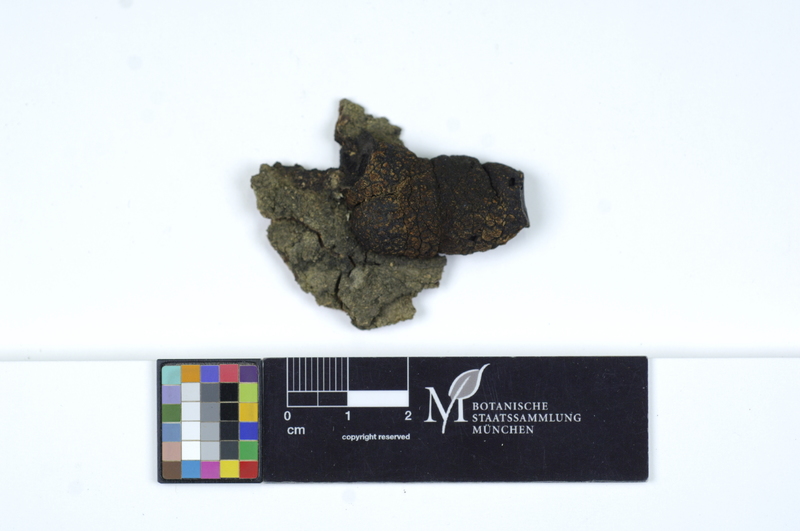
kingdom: Plantae
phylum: Tracheophyta
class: Magnoliopsida
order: Fagales
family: Fagaceae
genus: Quercus
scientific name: Quercus
